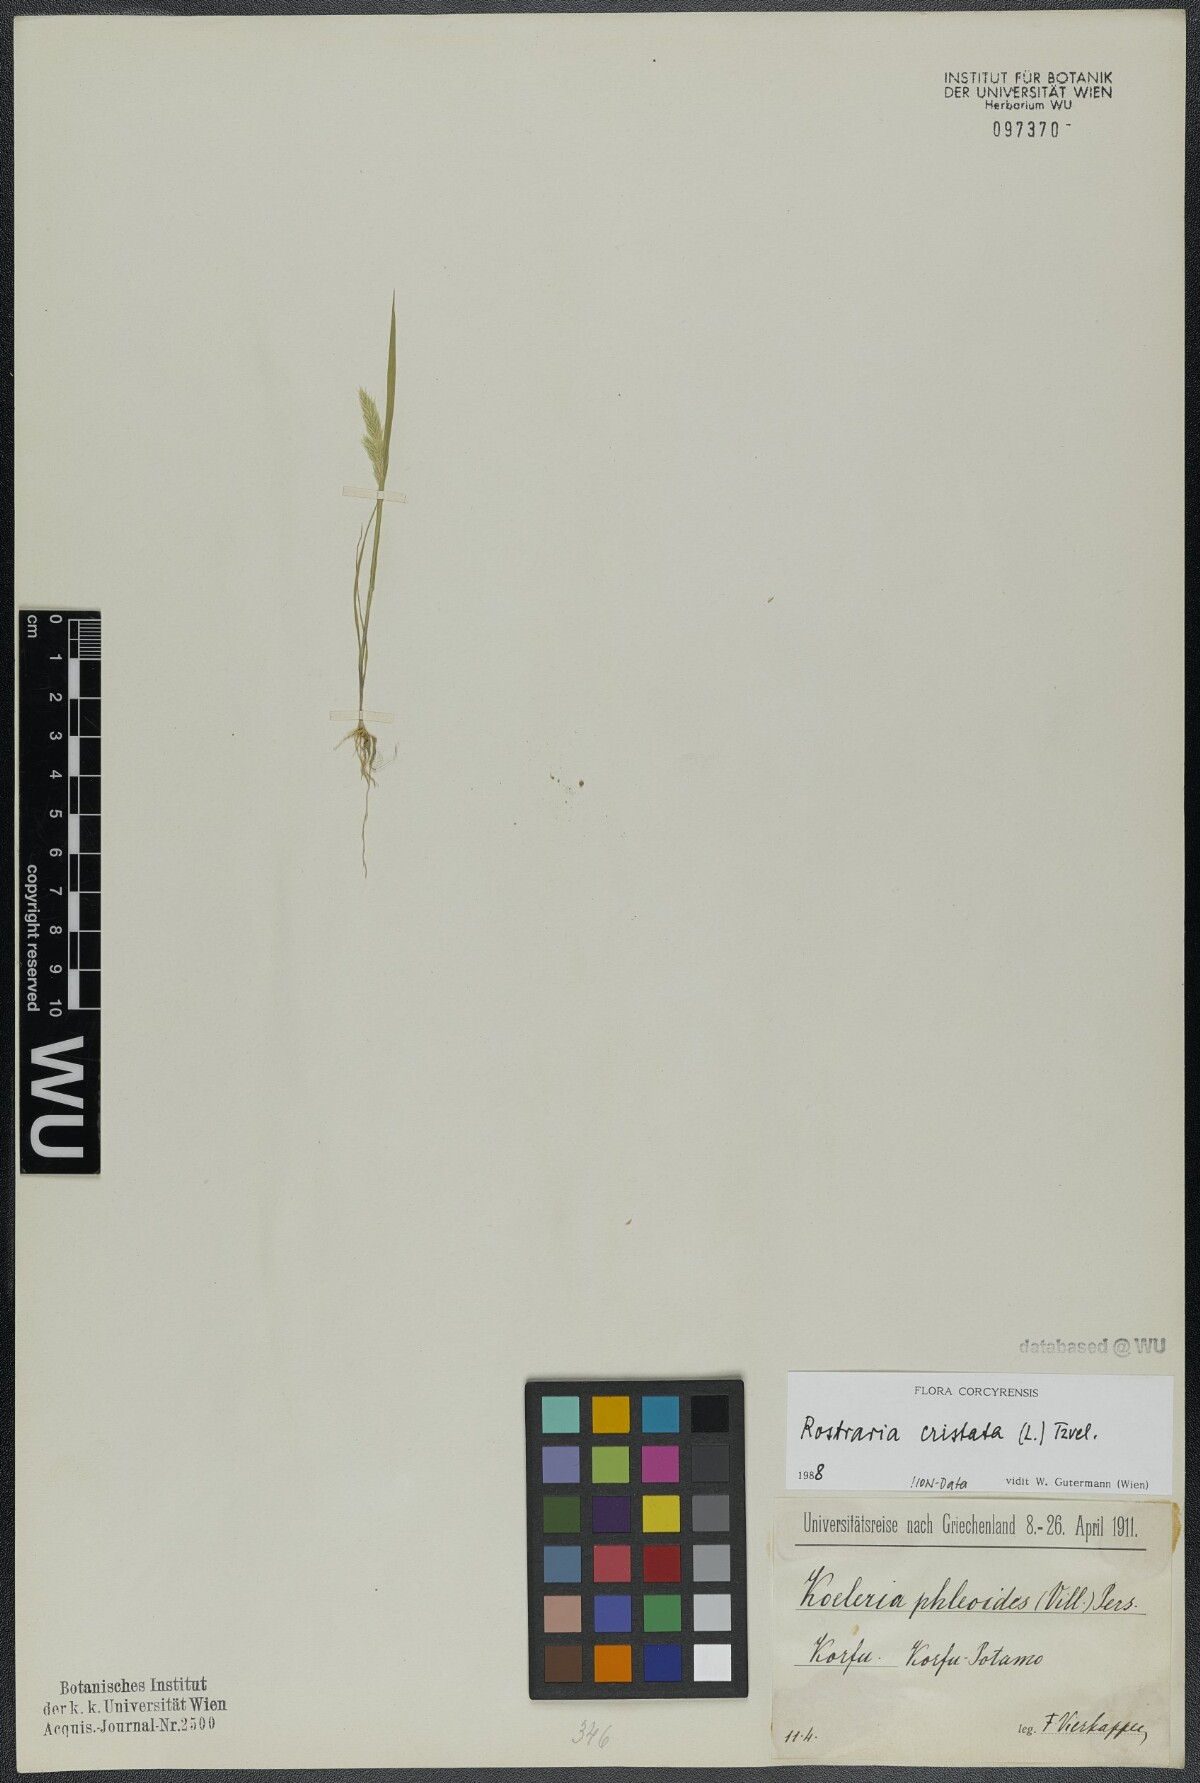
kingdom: Plantae
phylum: Tracheophyta
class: Liliopsida
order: Poales
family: Poaceae
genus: Rostraria
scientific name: Rostraria cristata
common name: Mediterranean hair-grass
